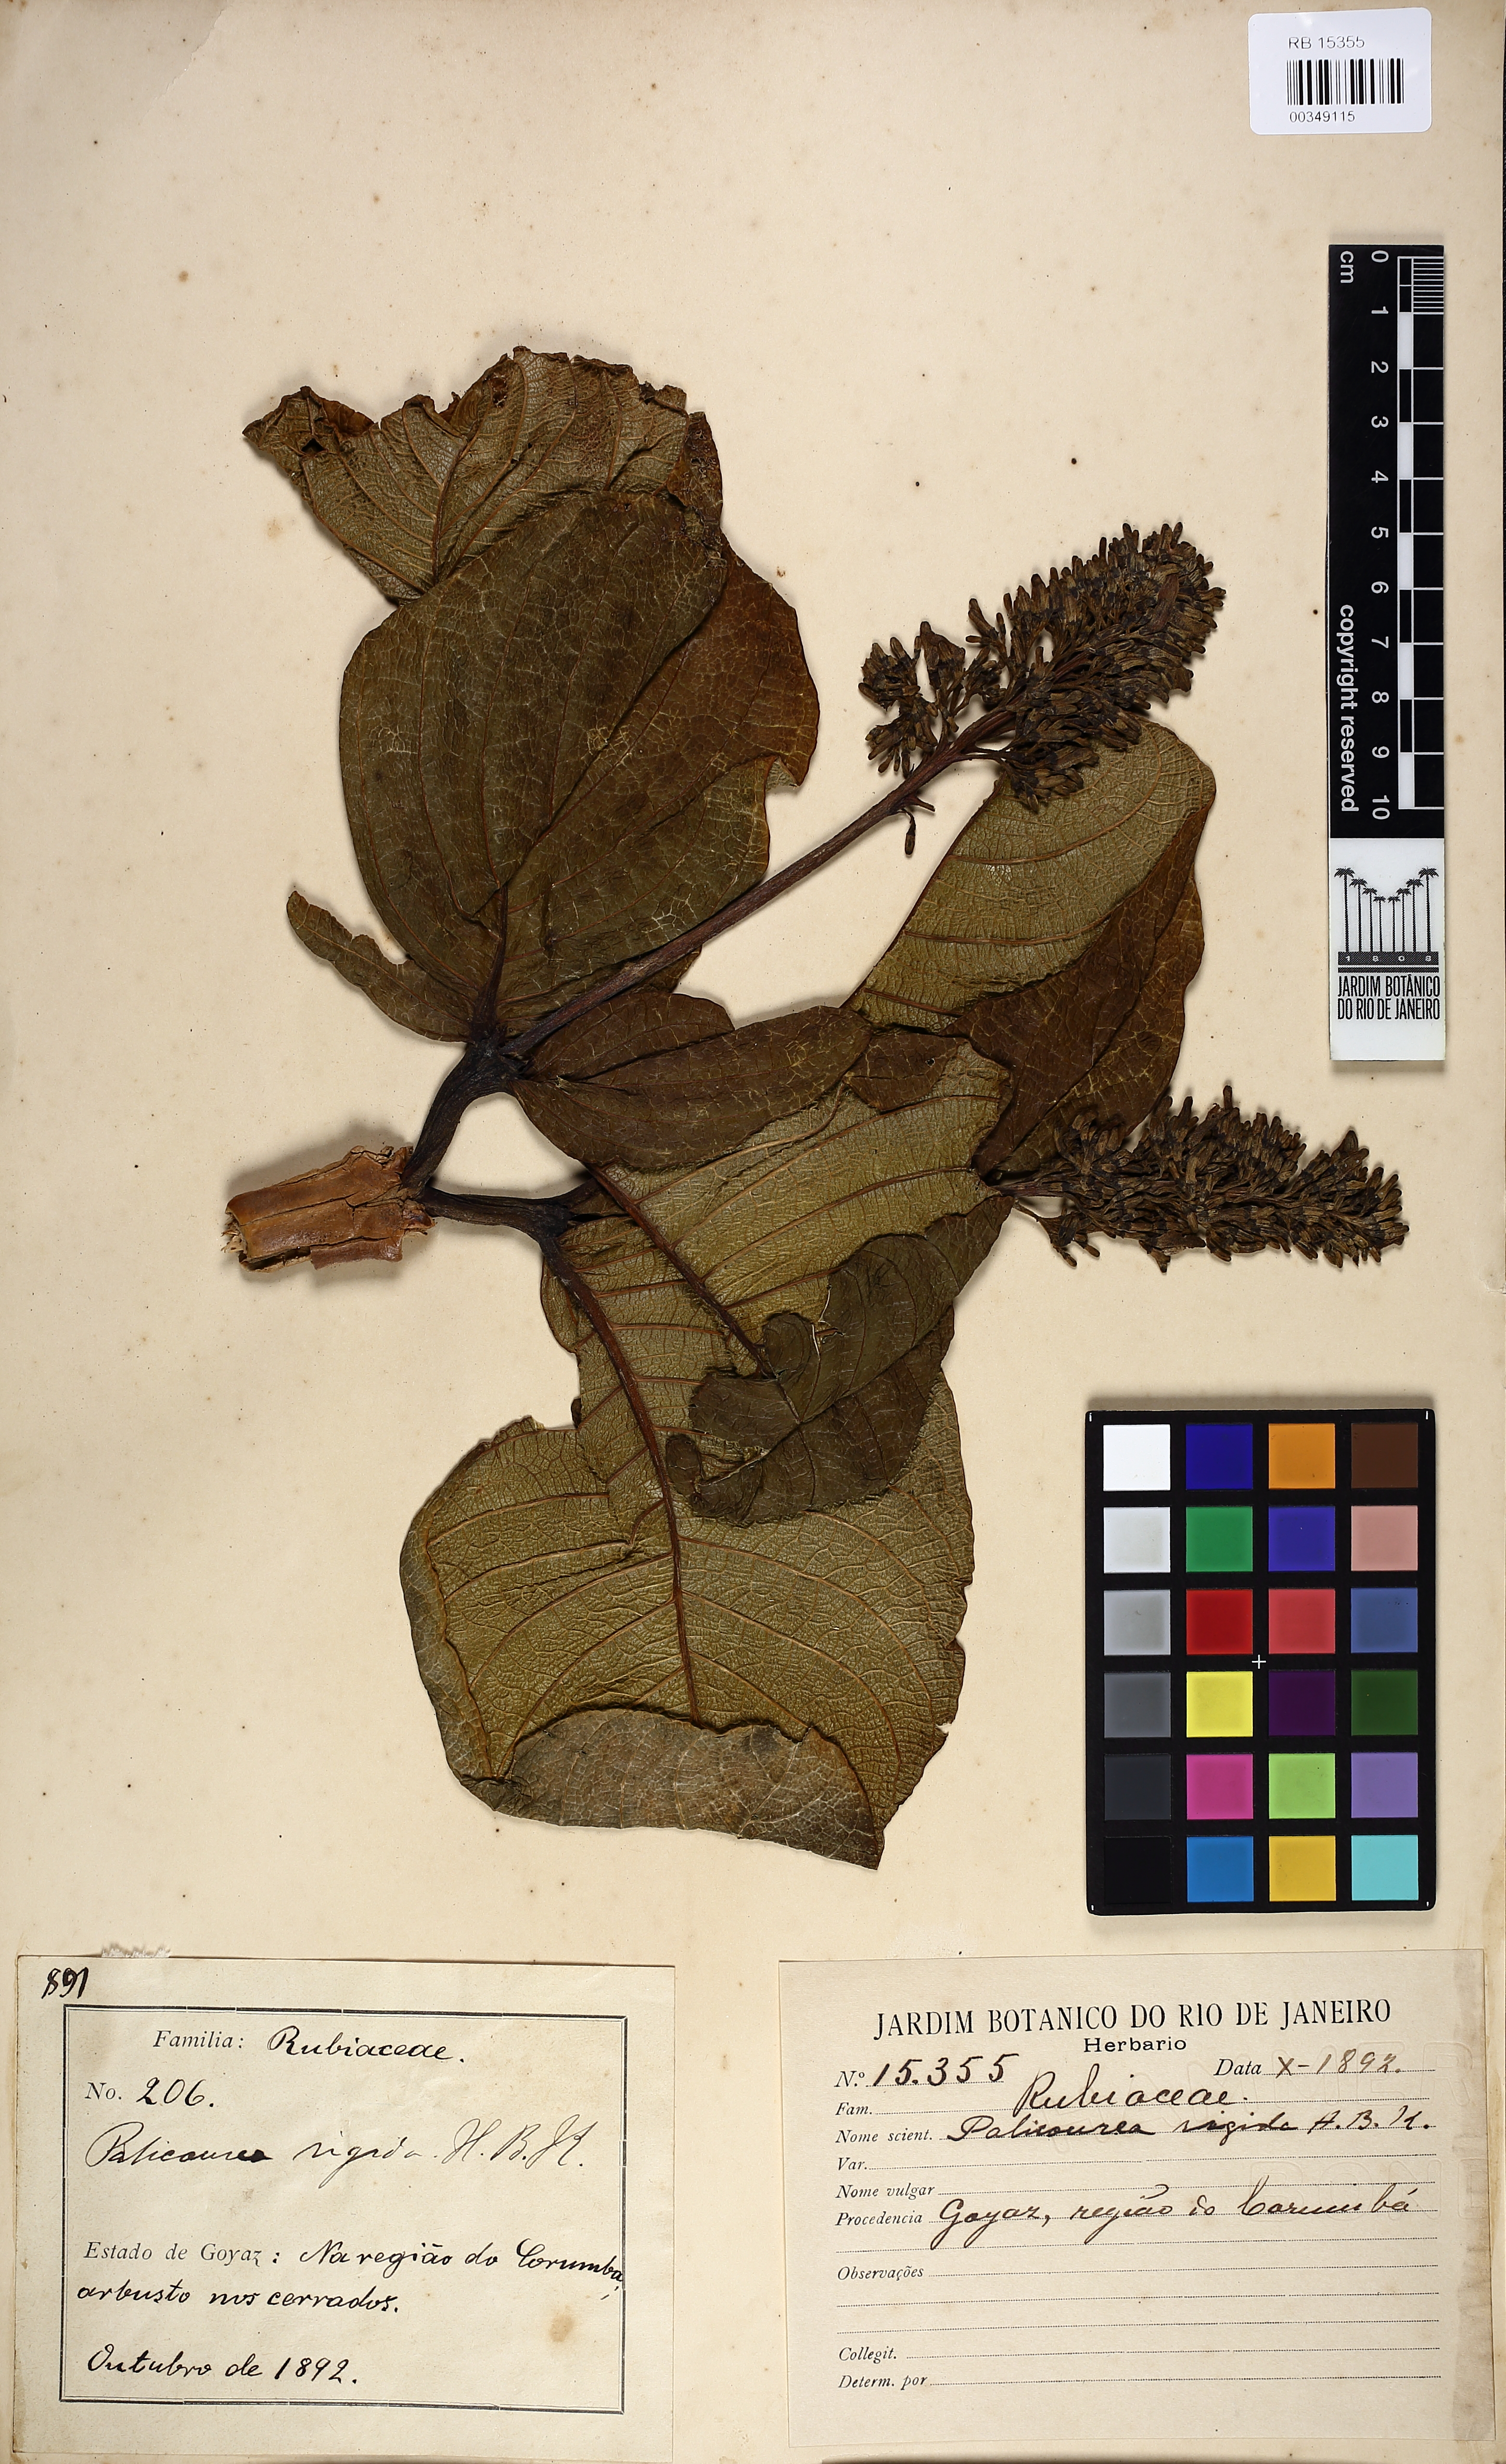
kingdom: Plantae
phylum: Tracheophyta
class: Magnoliopsida
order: Gentianales
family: Rubiaceae
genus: Palicourea
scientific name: Palicourea rigida
